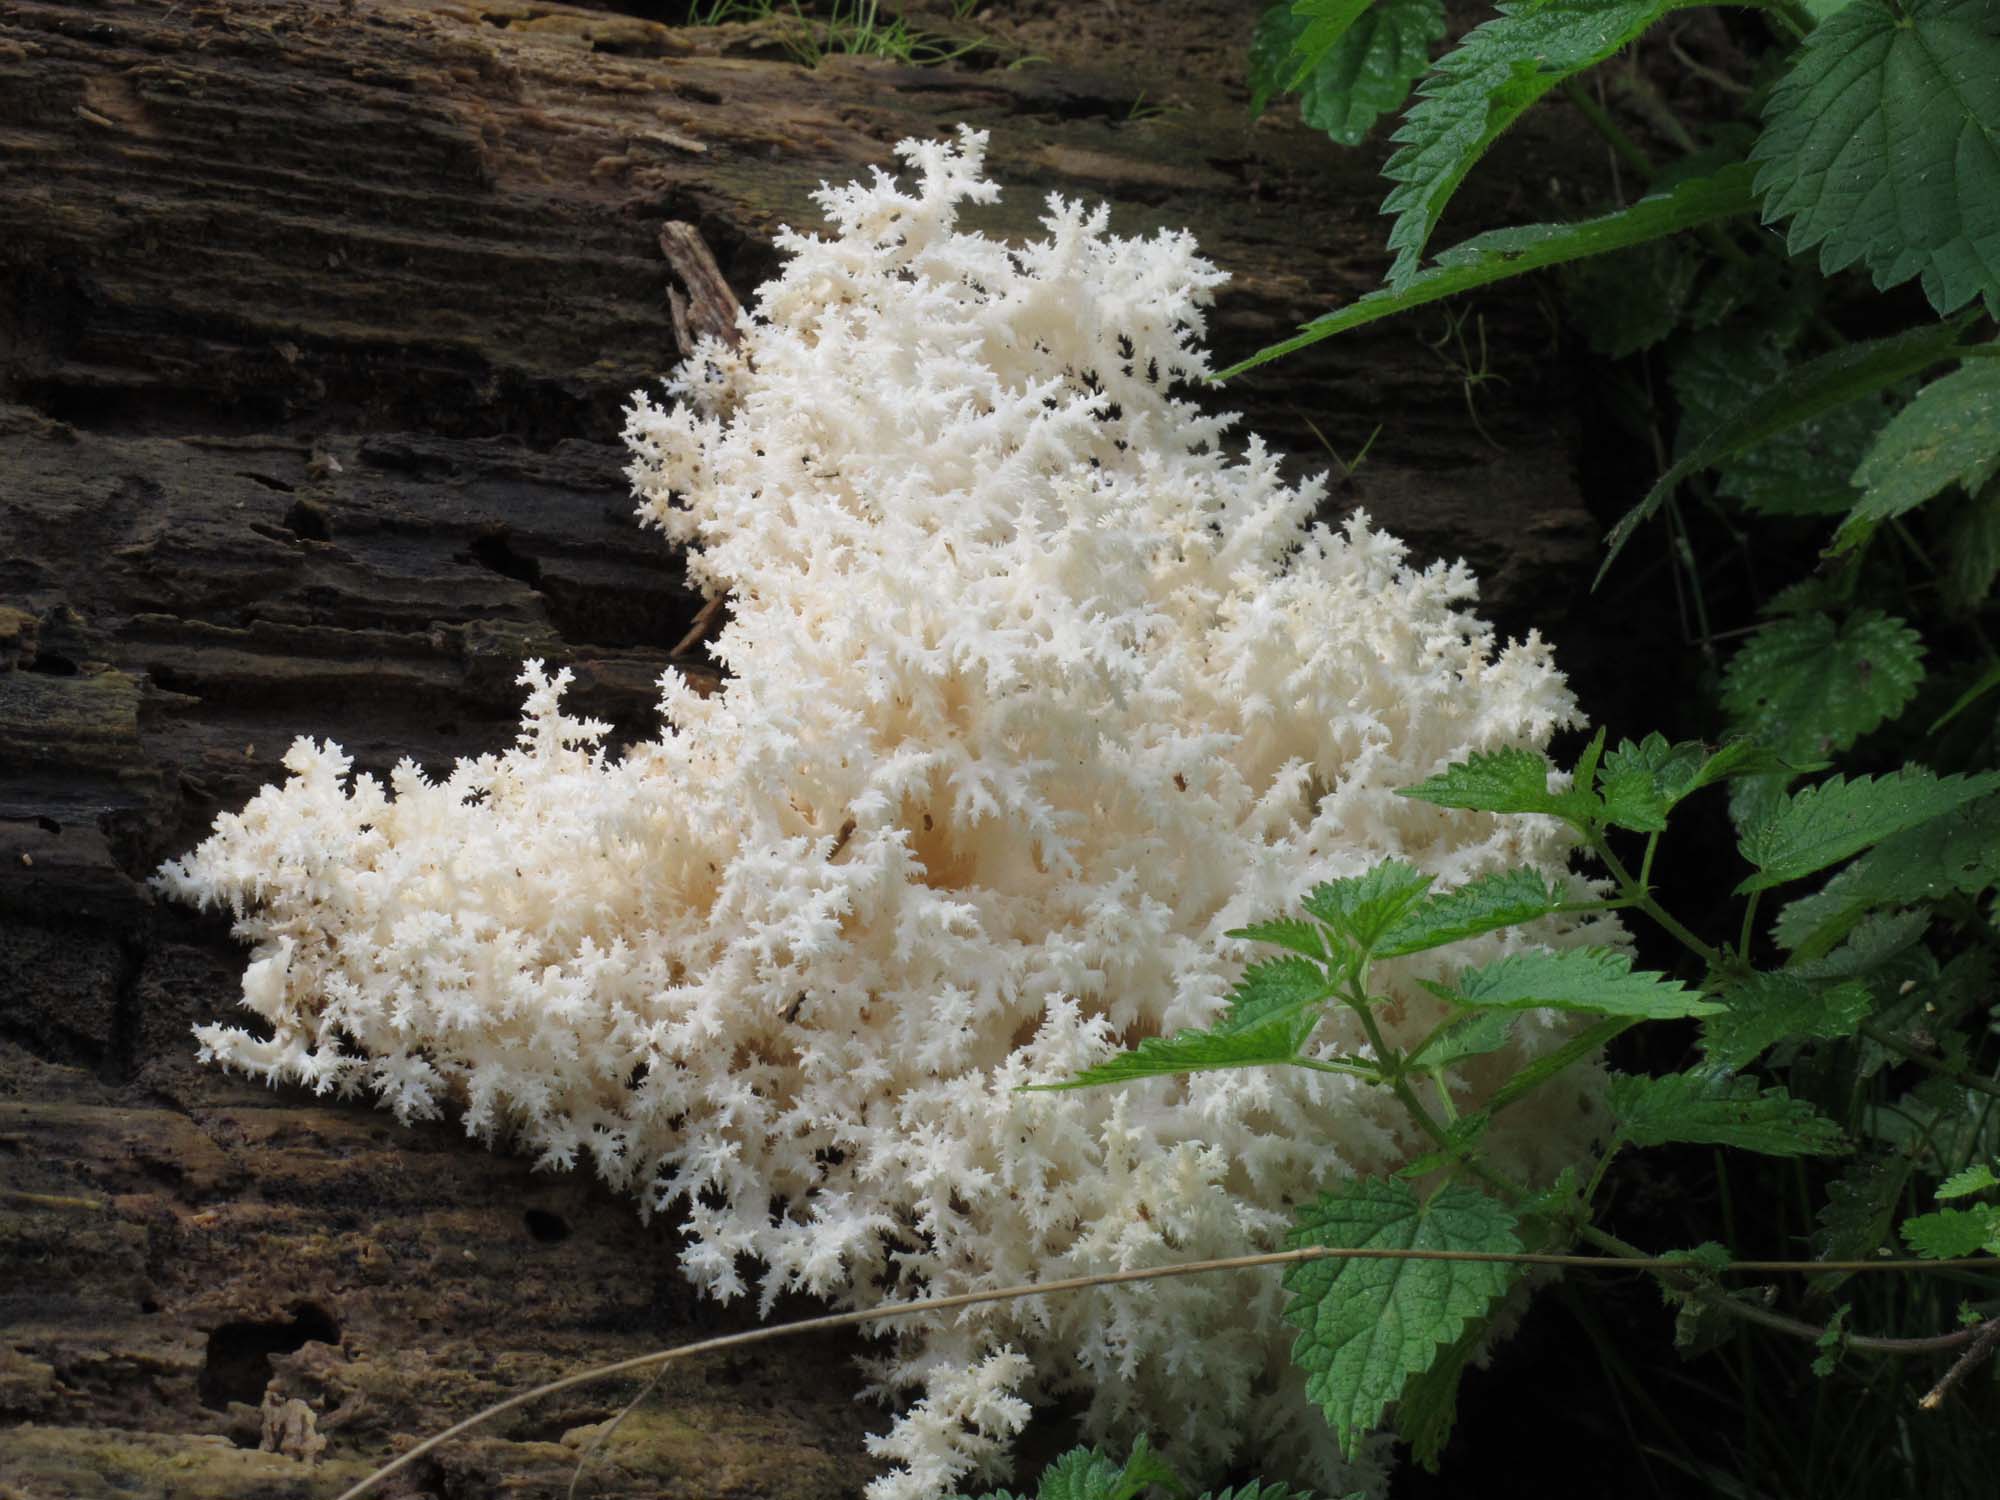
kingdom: Fungi
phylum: Basidiomycota
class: Agaricomycetes
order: Russulales
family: Hericiaceae
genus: Hericium
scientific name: Hericium coralloides
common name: koralpigsvamp
